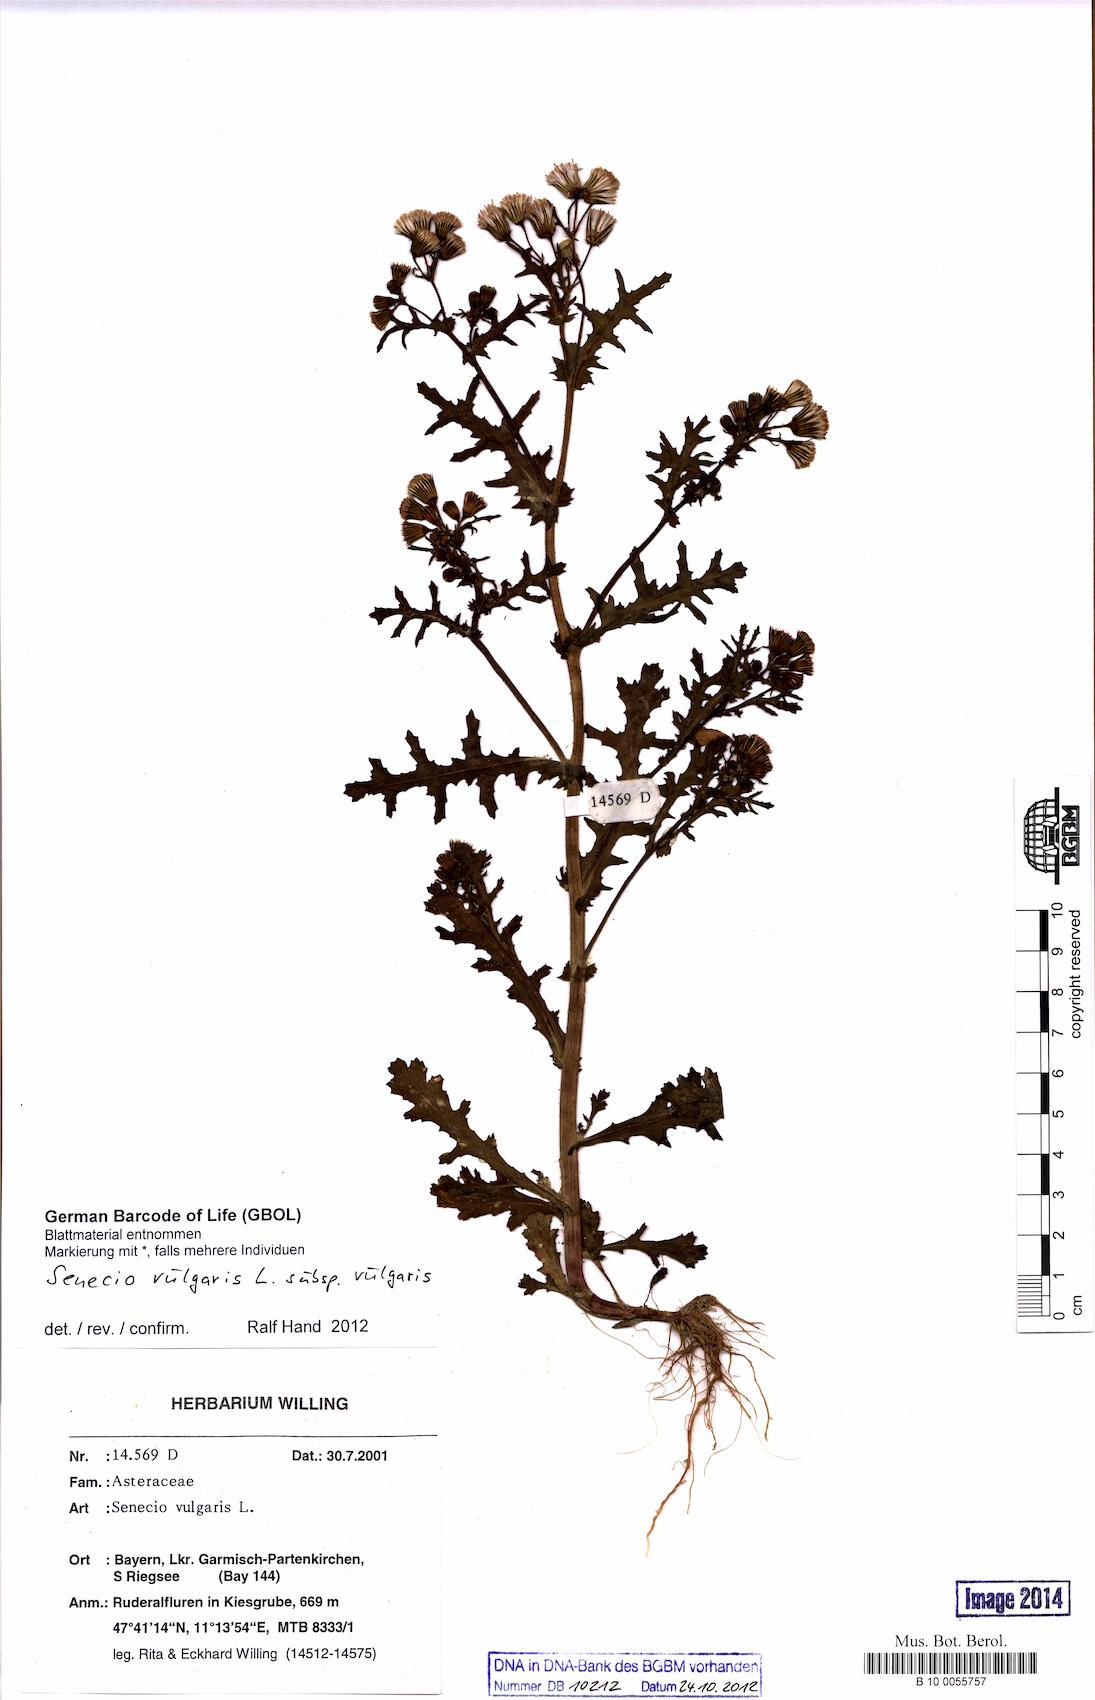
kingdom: Plantae
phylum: Tracheophyta
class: Magnoliopsida
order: Asterales
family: Asteraceae
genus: Senecio
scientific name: Senecio vulgaris
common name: Old-man-in-the-spring
